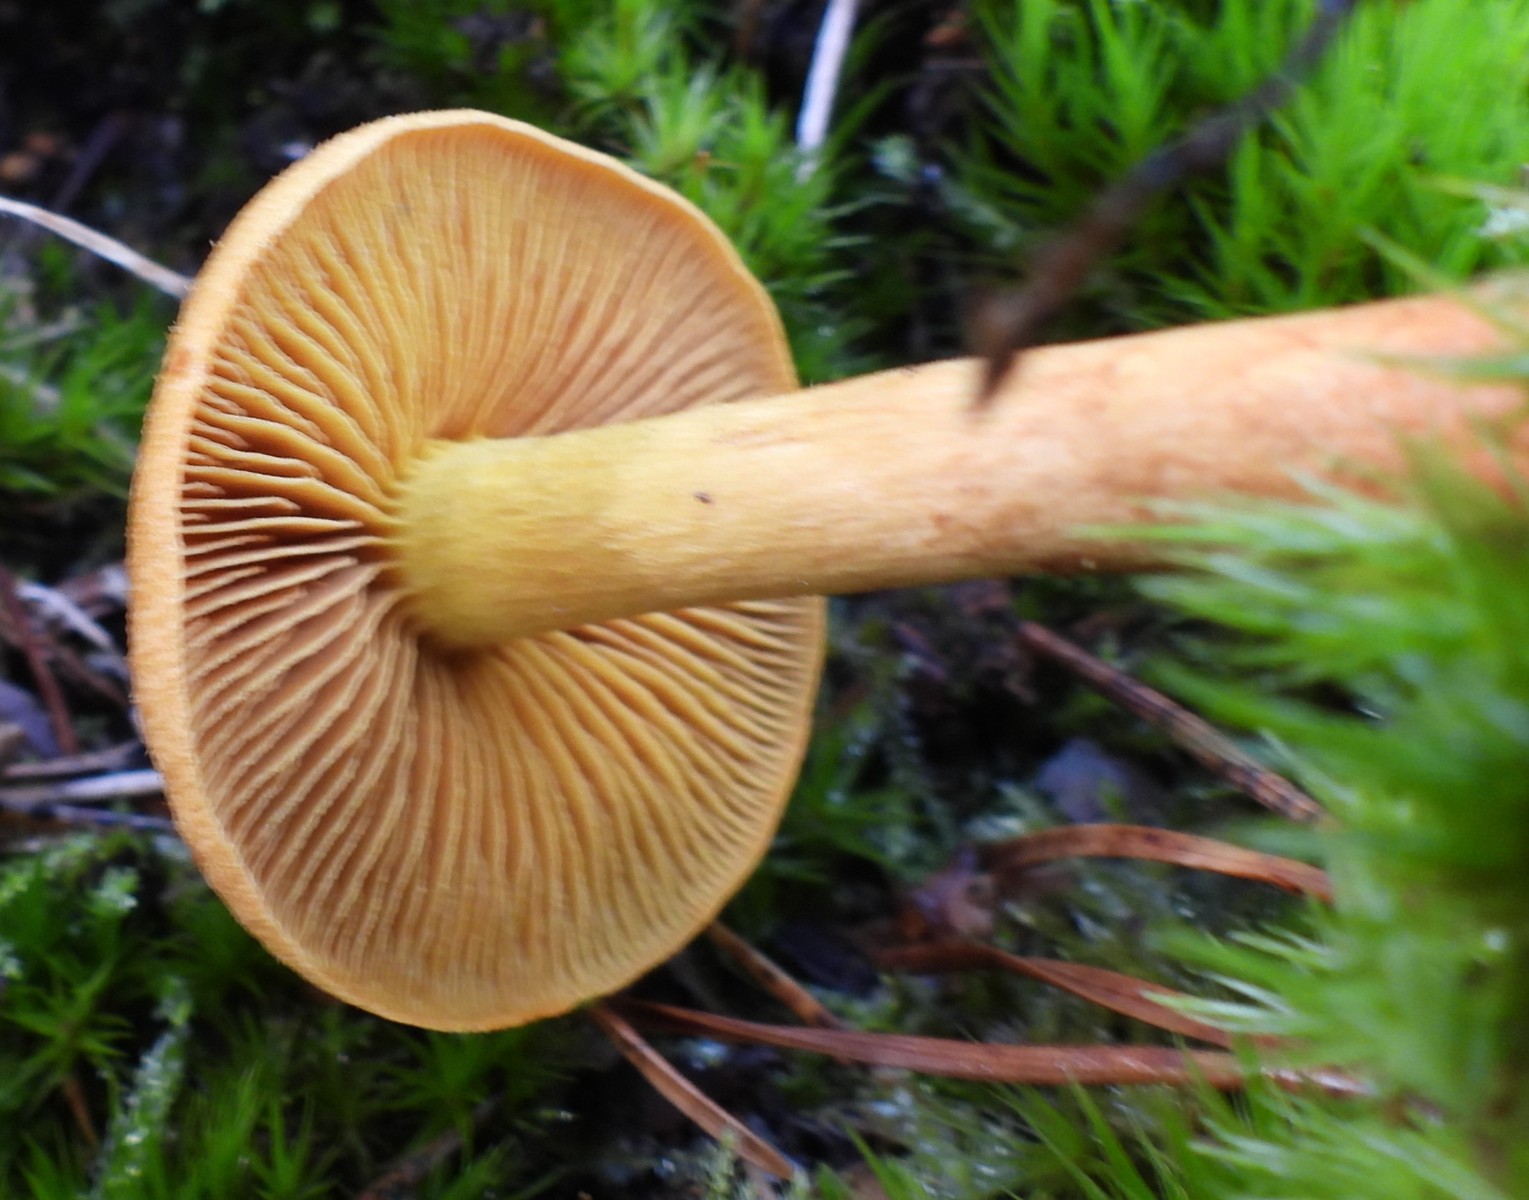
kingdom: Fungi
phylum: Basidiomycota
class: Agaricomycetes
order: Agaricales
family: Cortinariaceae
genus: Cortinarius
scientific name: Cortinarius
